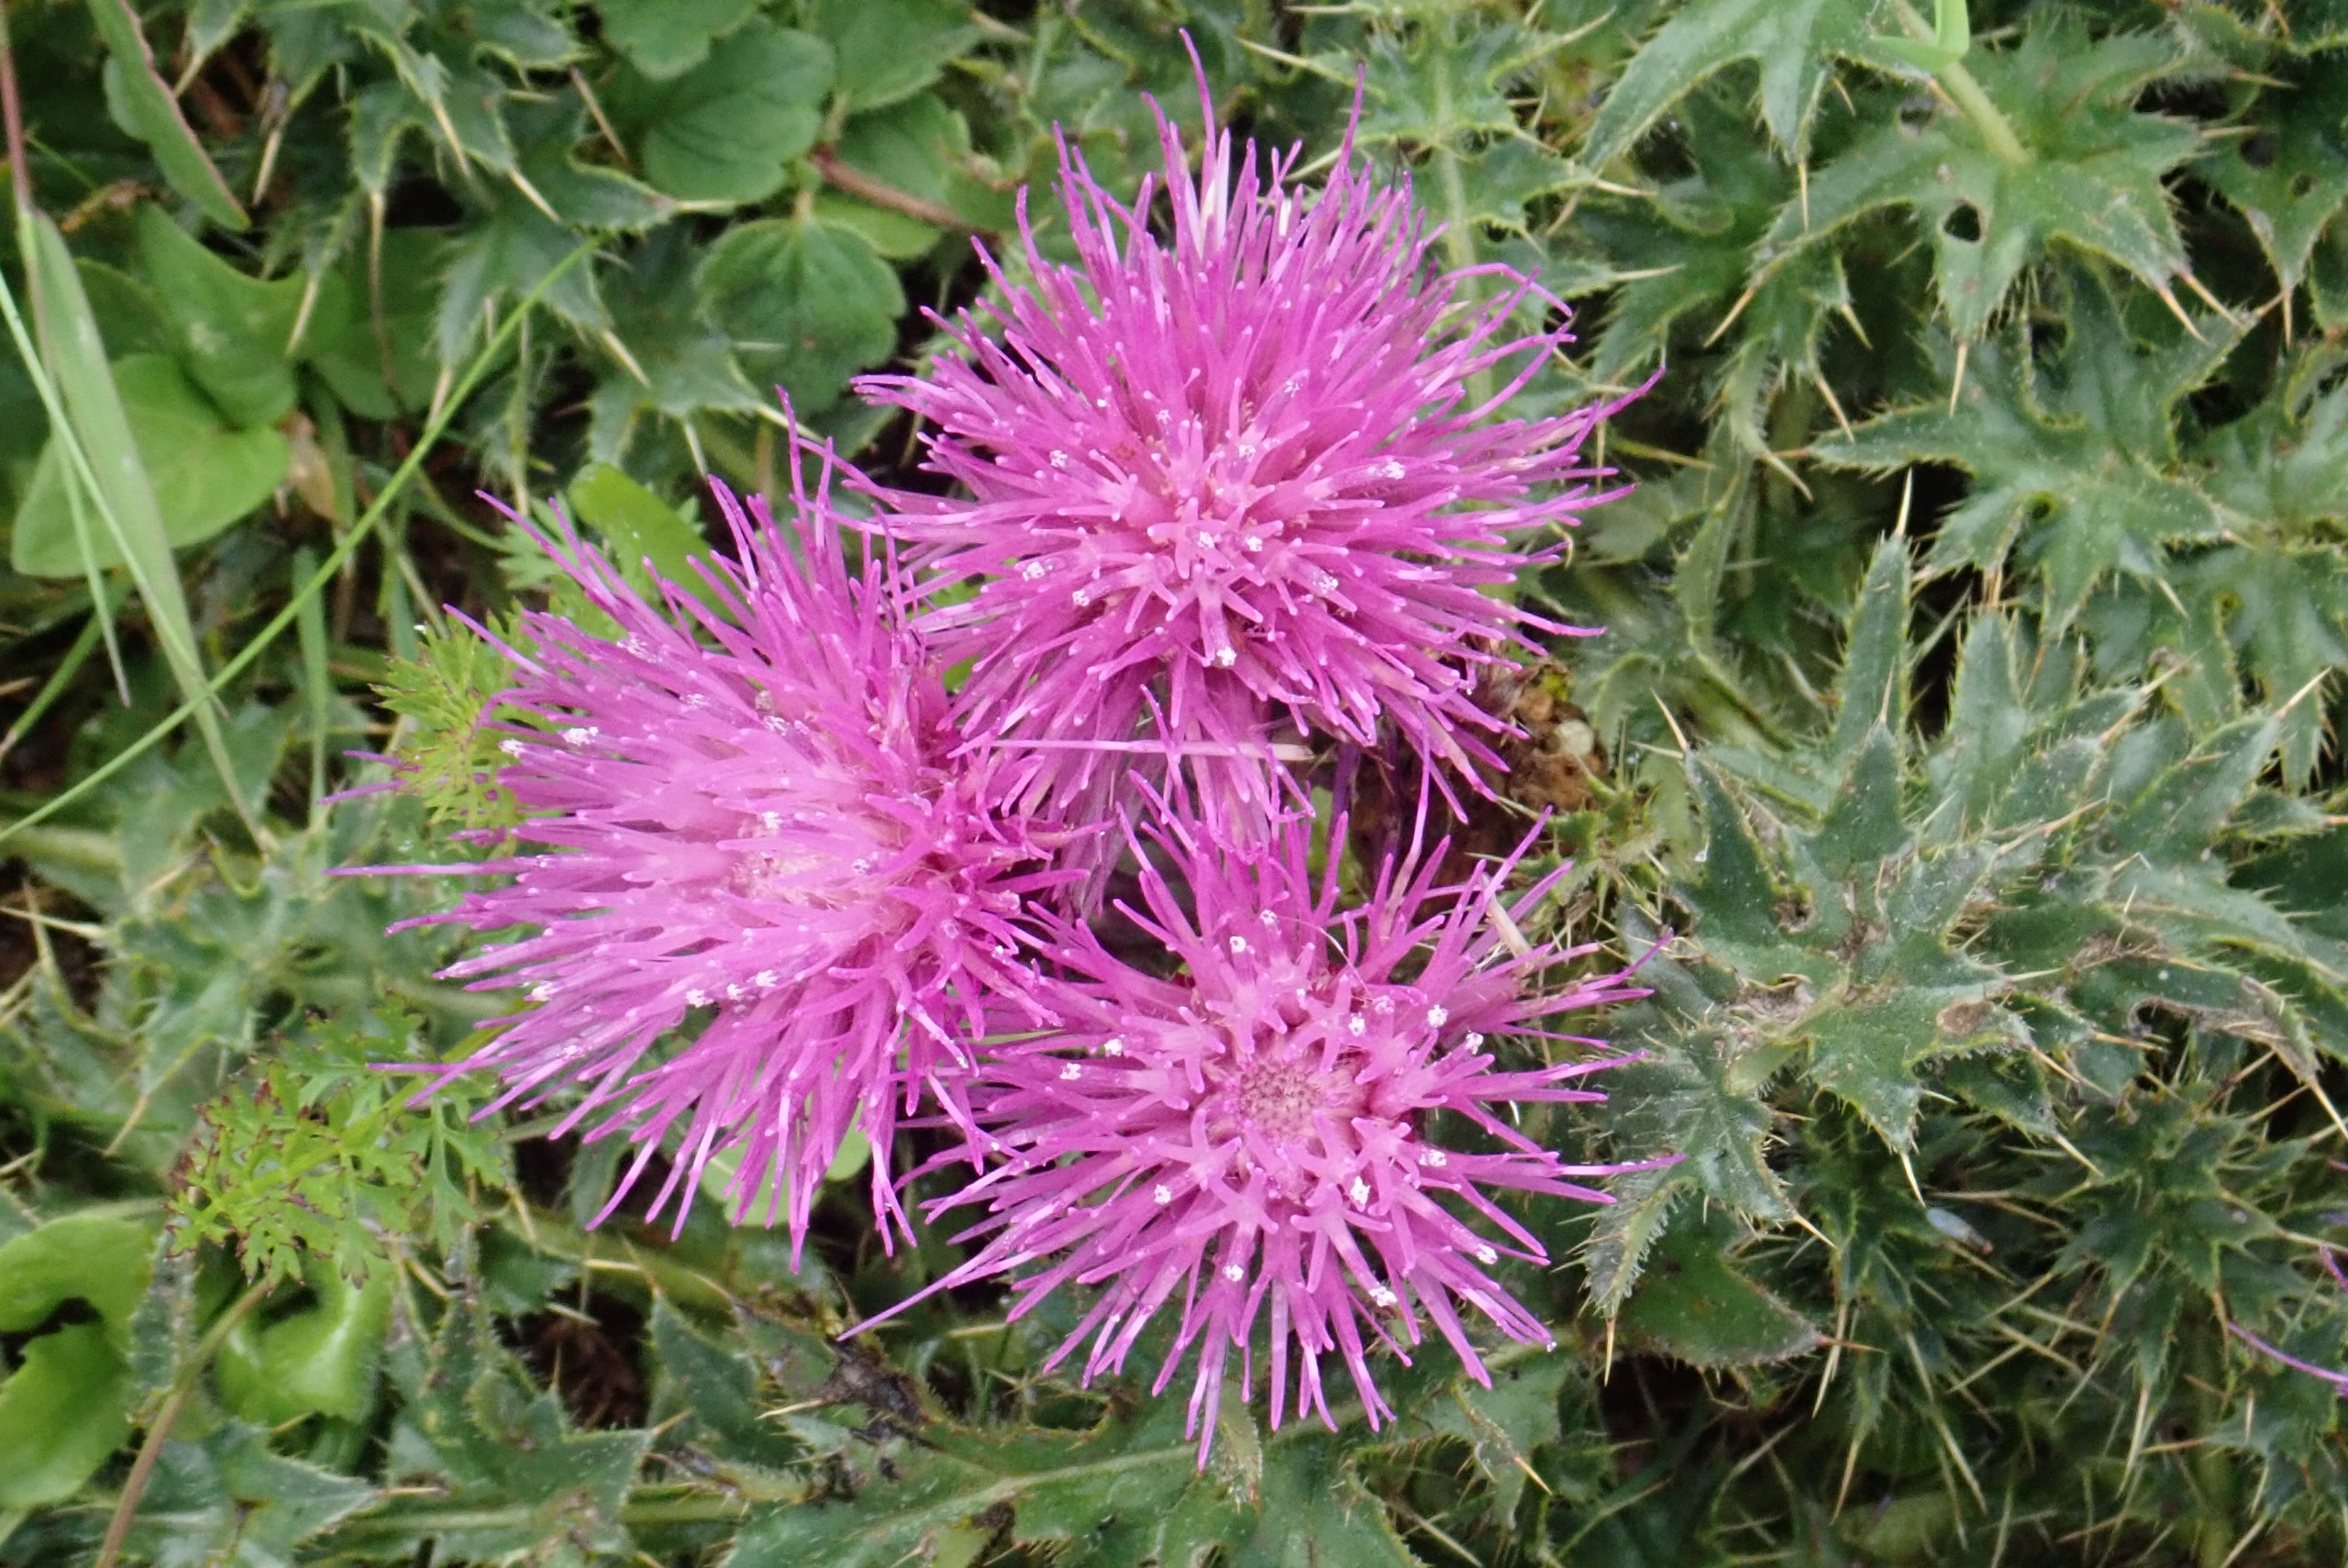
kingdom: Plantae
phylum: Tracheophyta
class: Magnoliopsida
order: Asterales
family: Asteraceae
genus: Cirsium
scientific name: Cirsium acaule
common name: Lav tidsel
